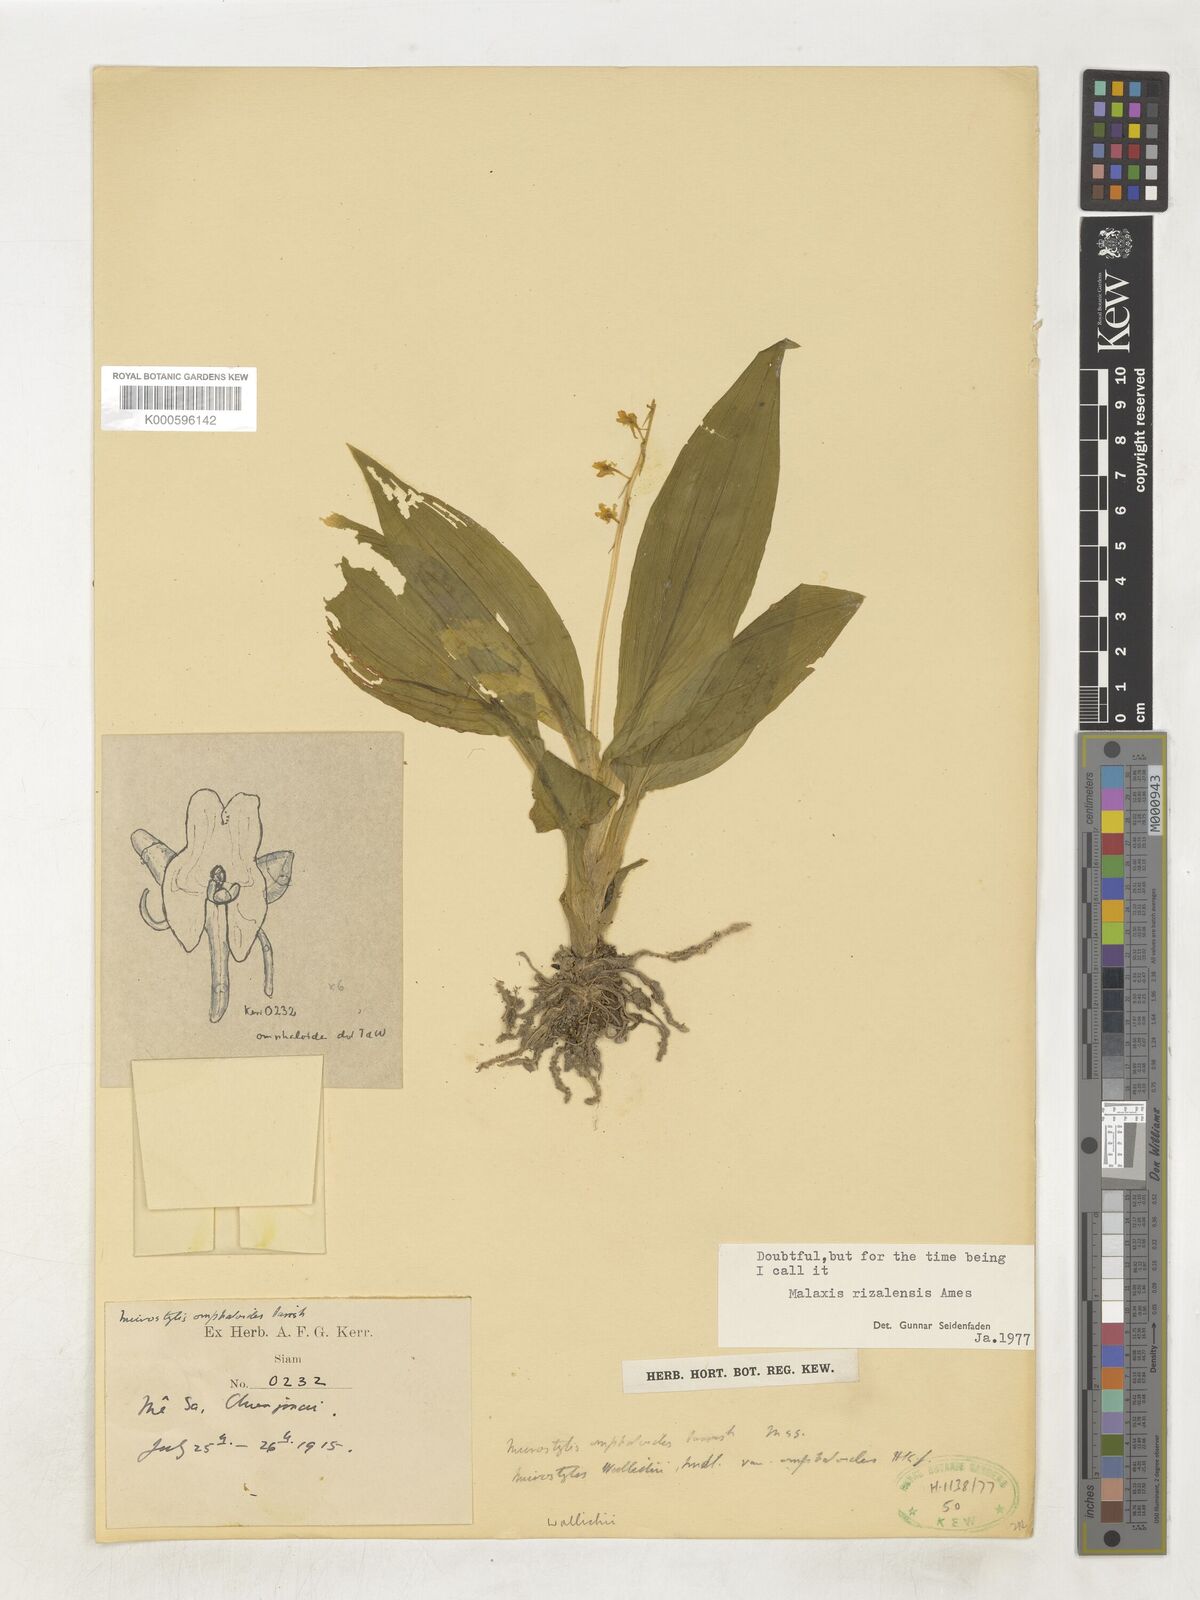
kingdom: Plantae
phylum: Tracheophyta
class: Liliopsida
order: Asparagales
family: Orchidaceae
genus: Crepidium
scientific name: Crepidium purpureum
